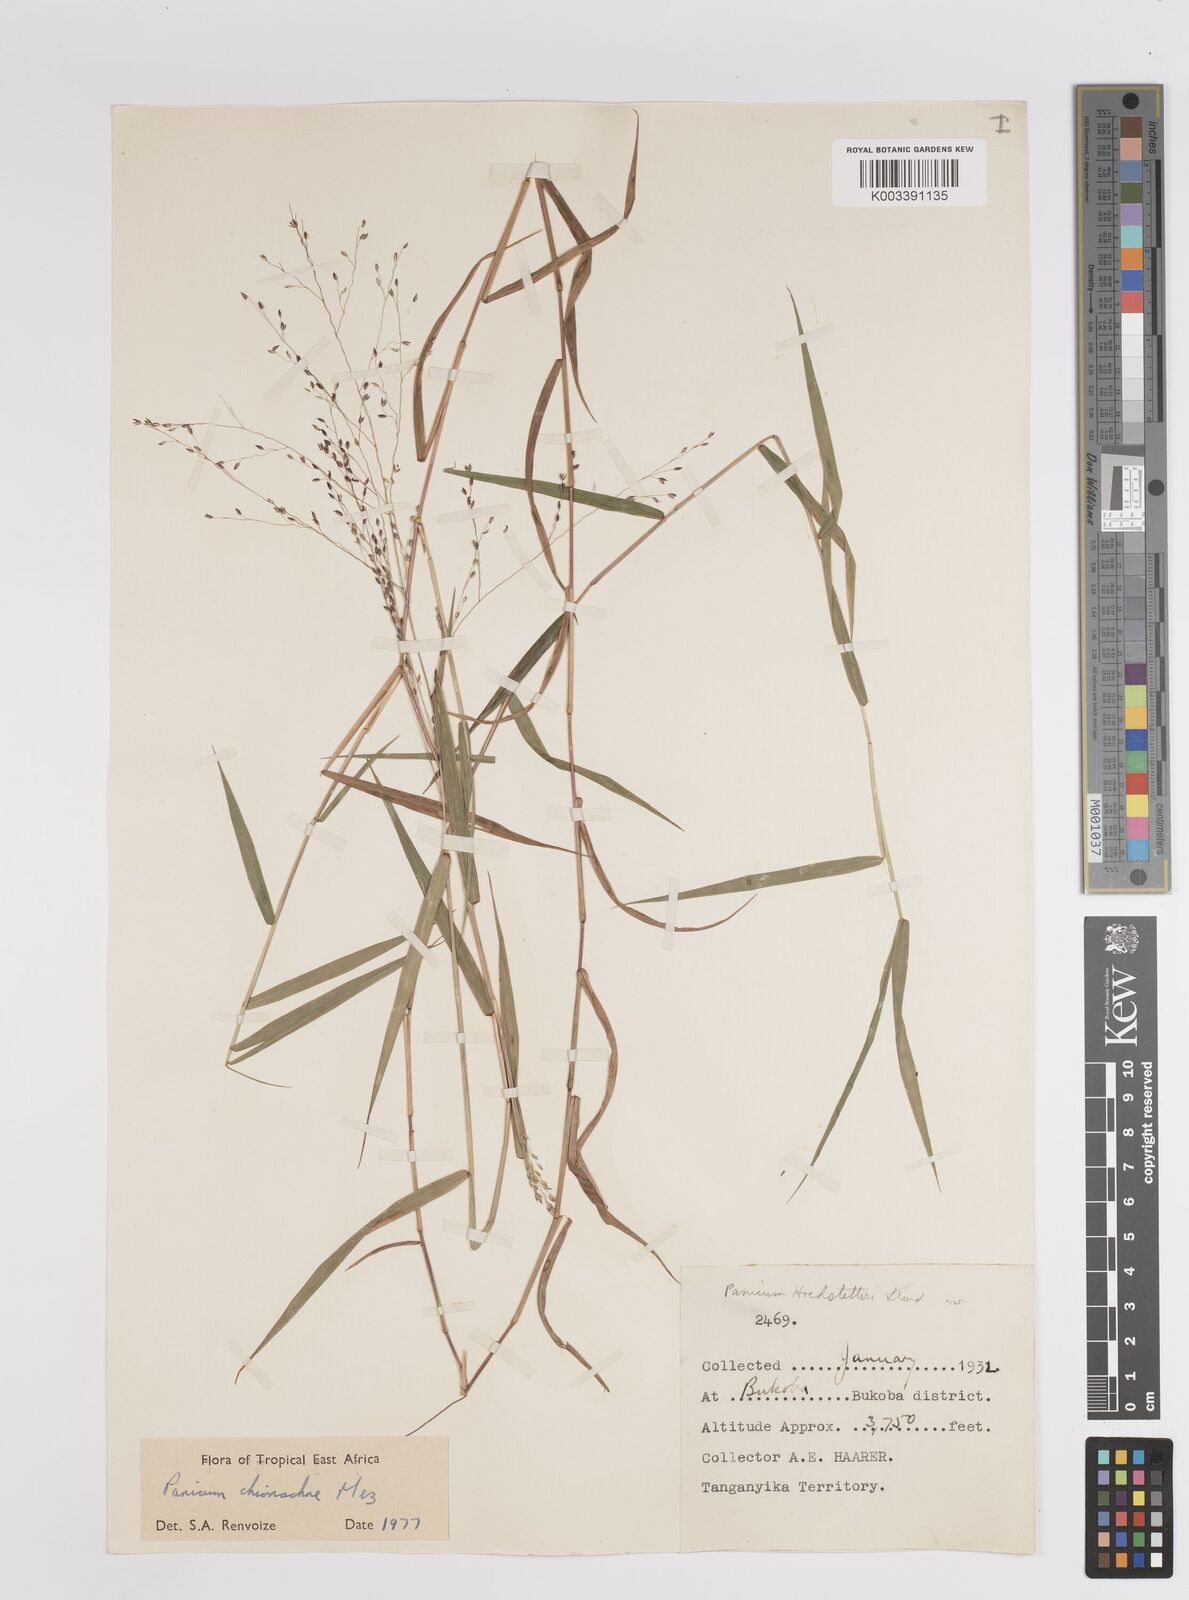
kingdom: Plantae
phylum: Tracheophyta
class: Liliopsida
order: Poales
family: Poaceae
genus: Panicum
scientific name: Panicum chionachne
